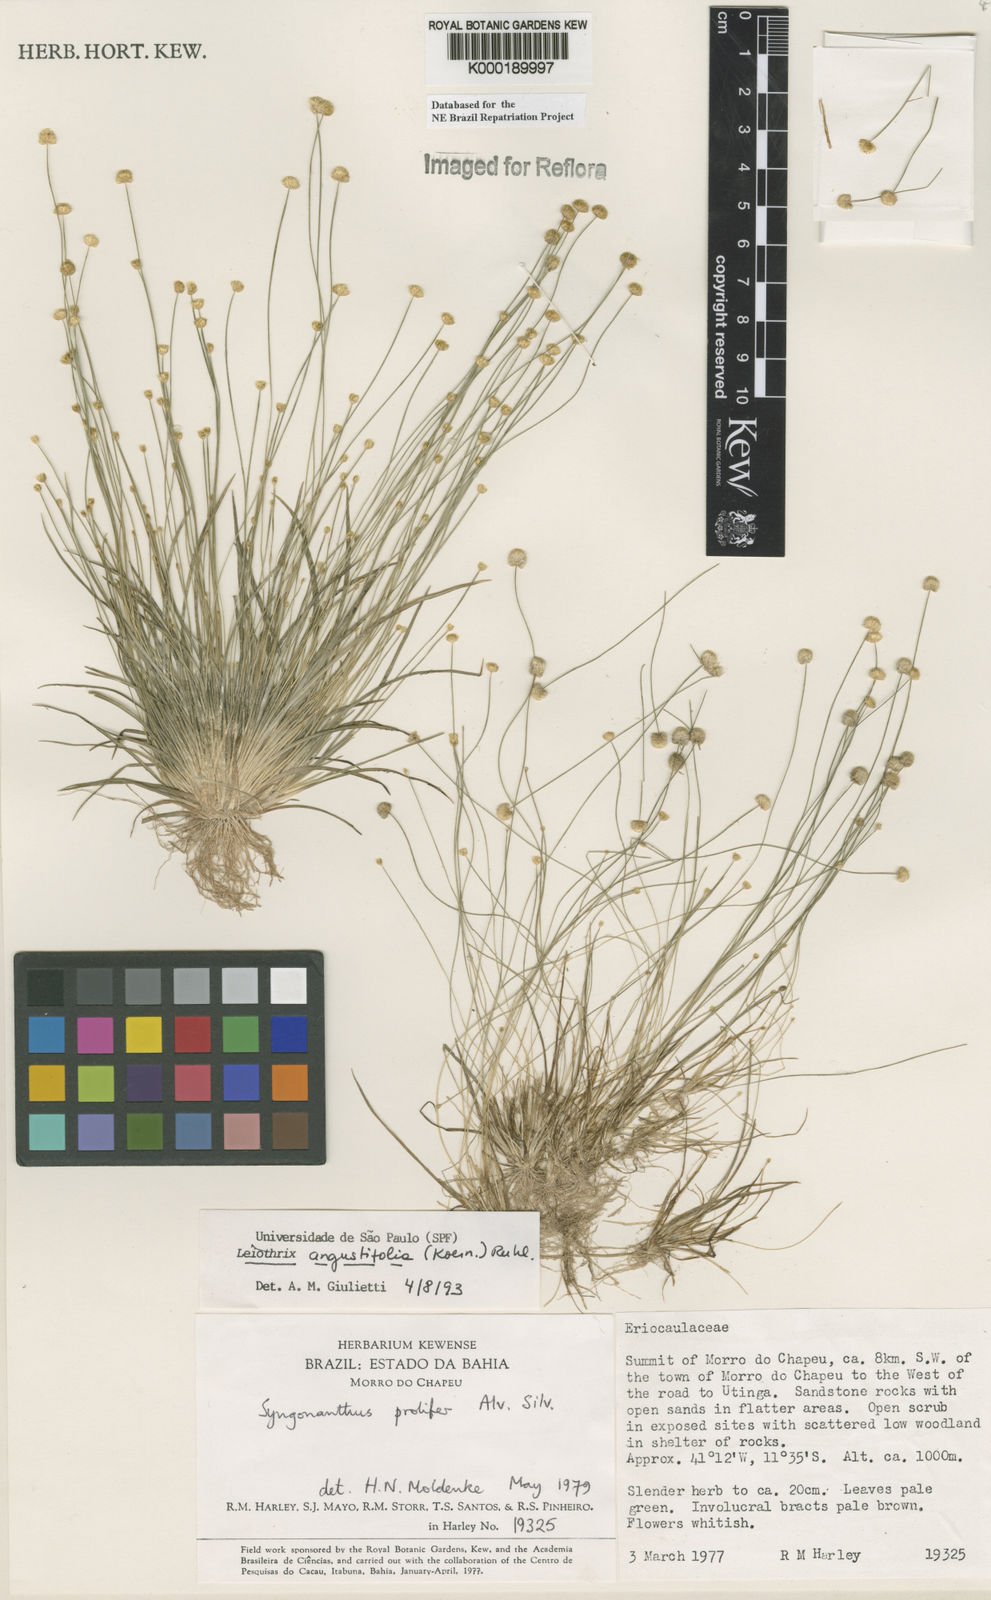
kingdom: Plantae
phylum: Tracheophyta
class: Liliopsida
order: Poales
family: Eriocaulaceae
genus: Leiothrix
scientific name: Leiothrix angustifolia
